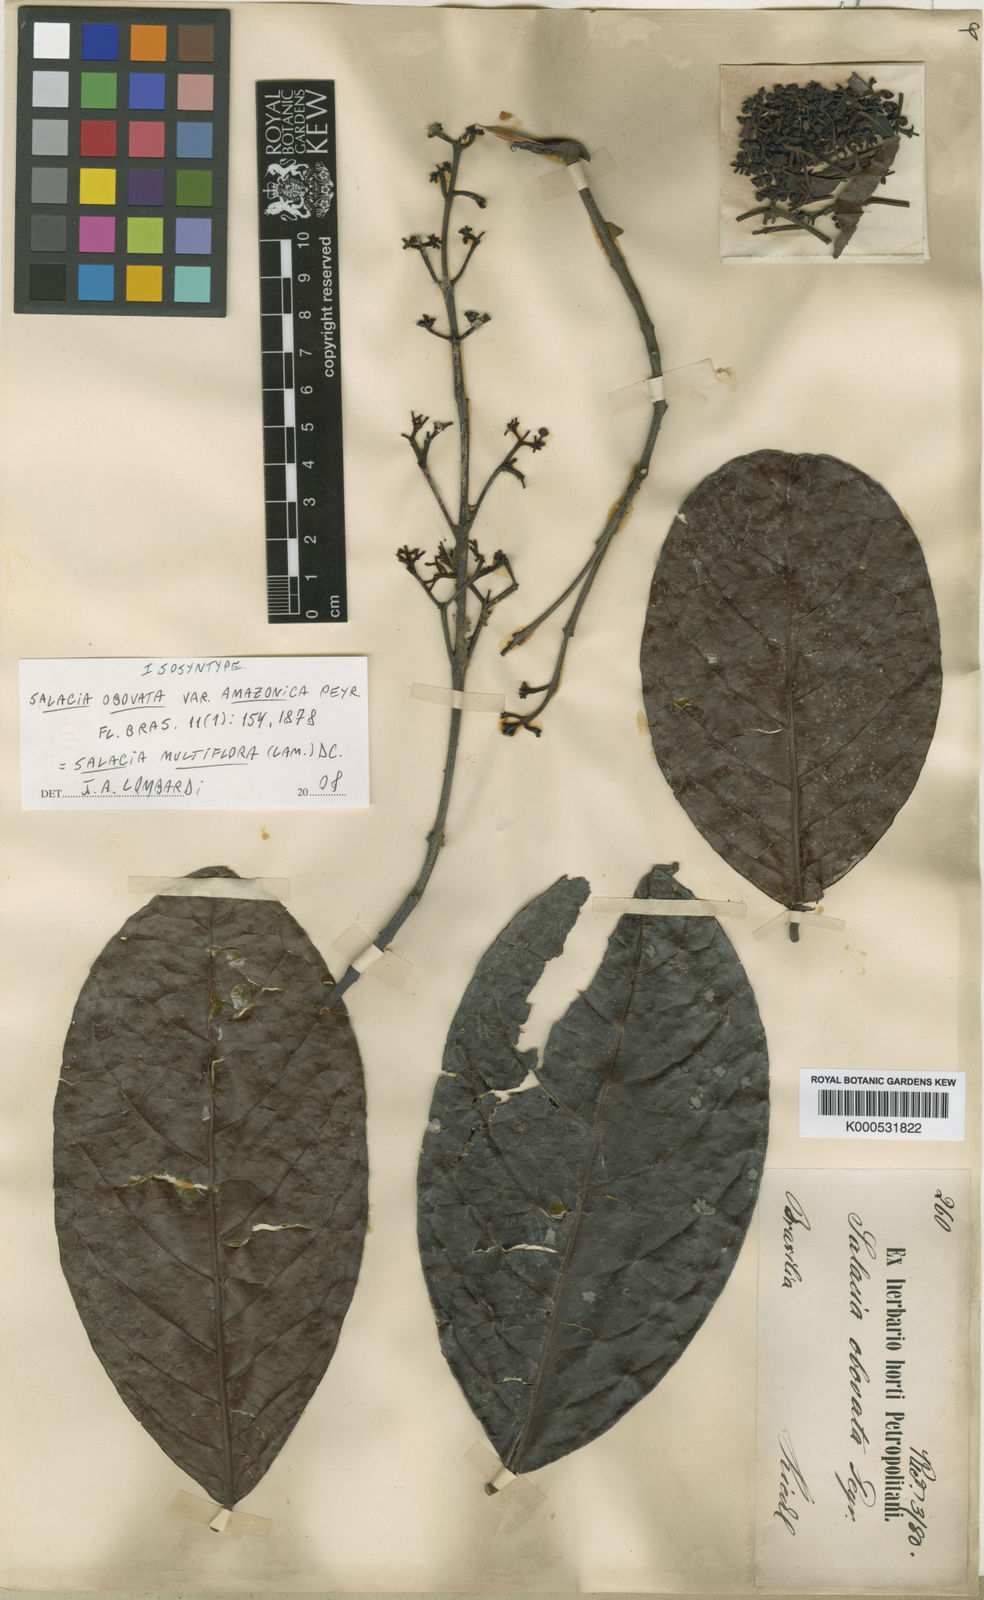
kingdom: Plantae
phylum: Tracheophyta
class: Magnoliopsida
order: Celastrales
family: Celastraceae
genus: Salacia
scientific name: Salacia multiflora
